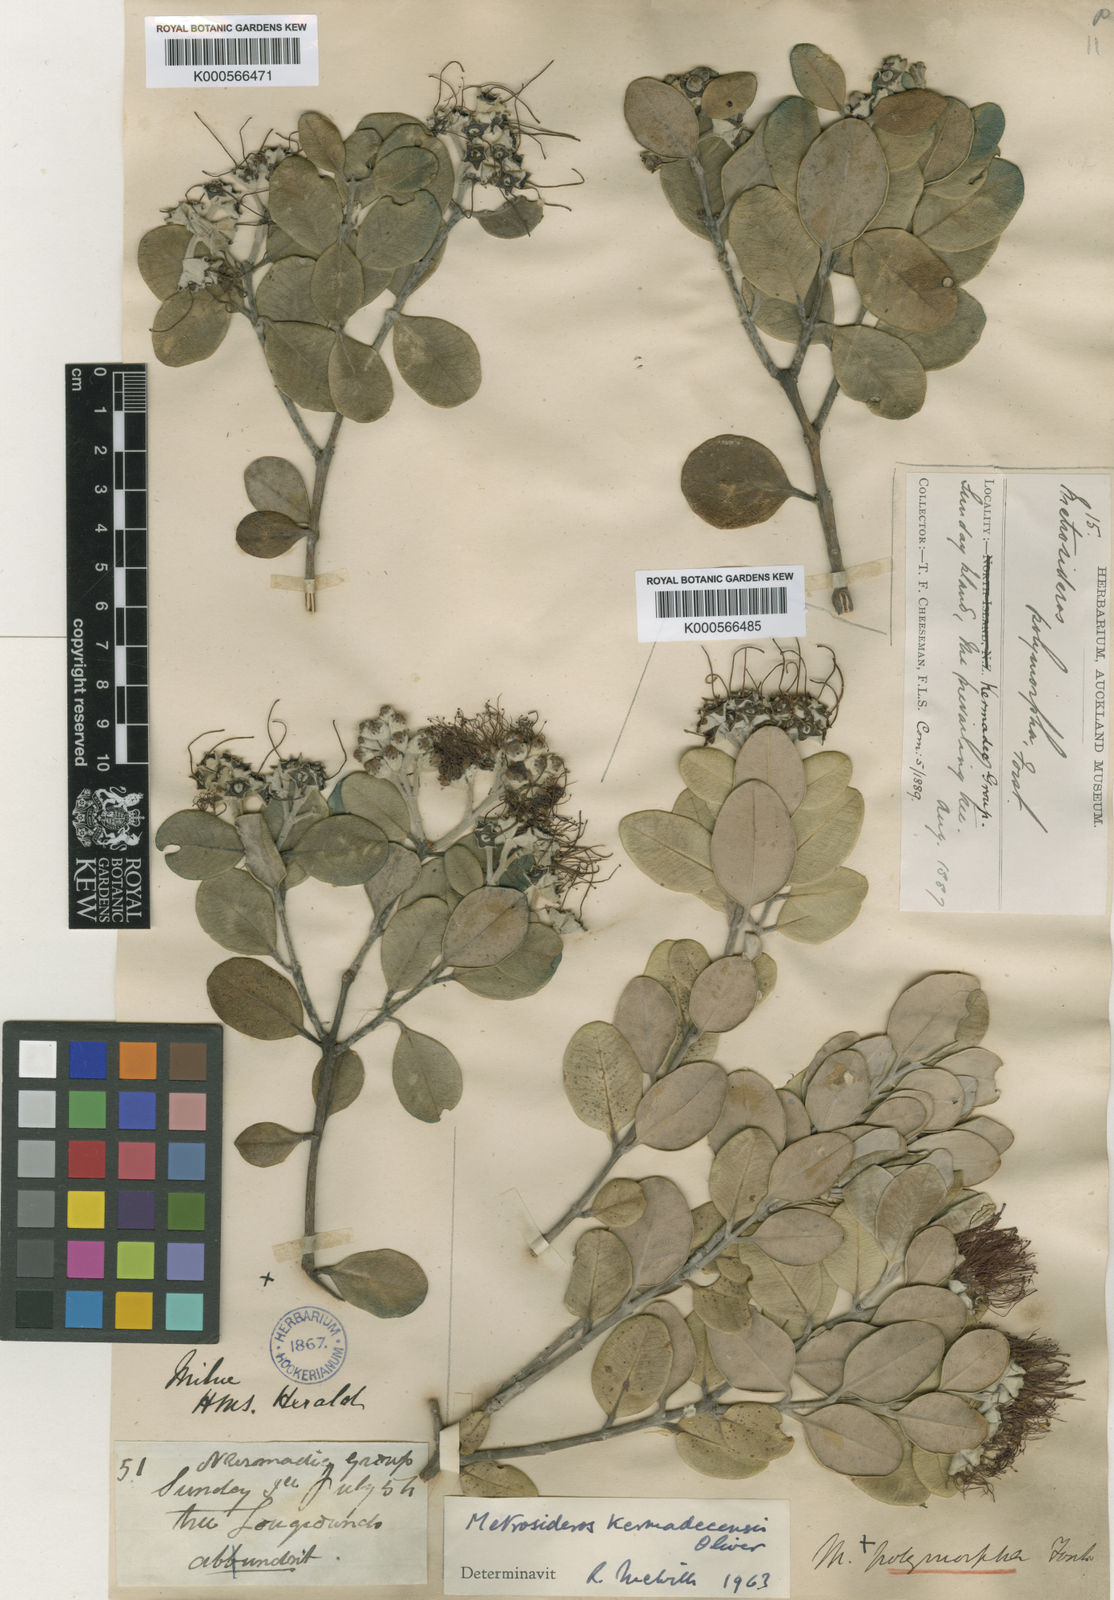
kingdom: Plantae
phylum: Tracheophyta
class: Magnoliopsida
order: Myrtales
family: Myrtaceae
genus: Metrosideros
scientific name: Metrosideros kermadecensis
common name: Pohutukawa
